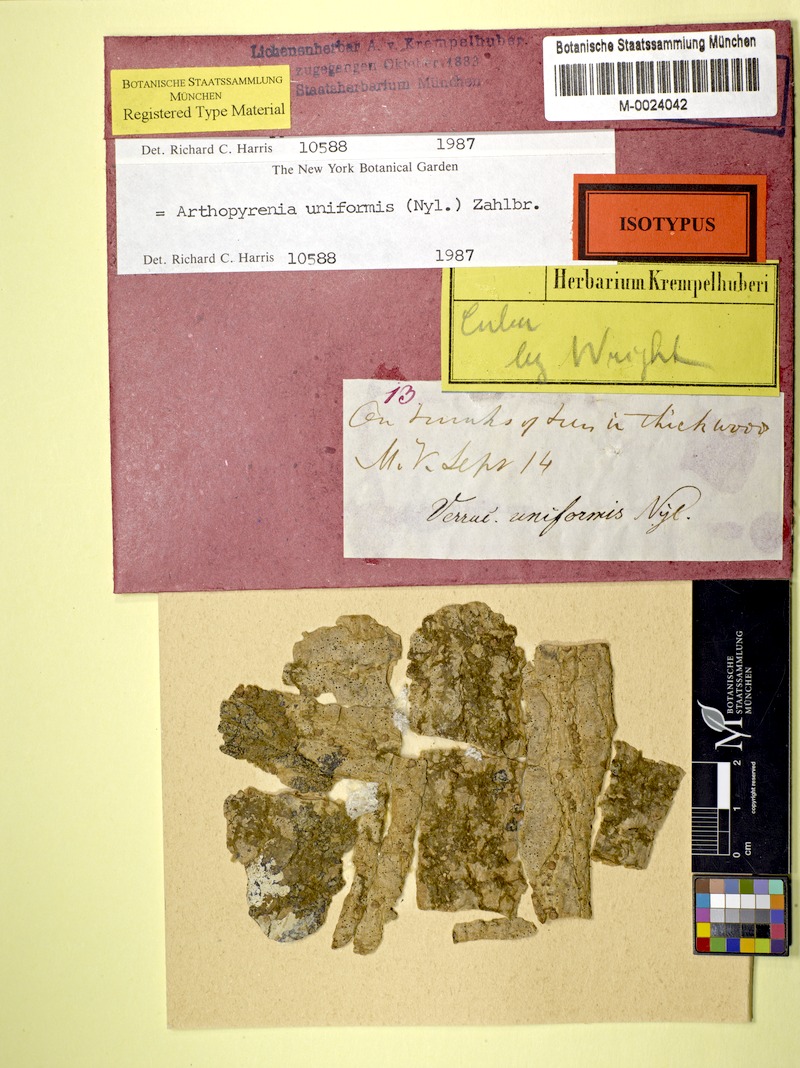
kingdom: Fungi
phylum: Ascomycota
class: Dothideomycetes
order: Pleosporales
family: Arthopyreniaceae
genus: Arthopyrenia
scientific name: Arthopyrenia uniformis
